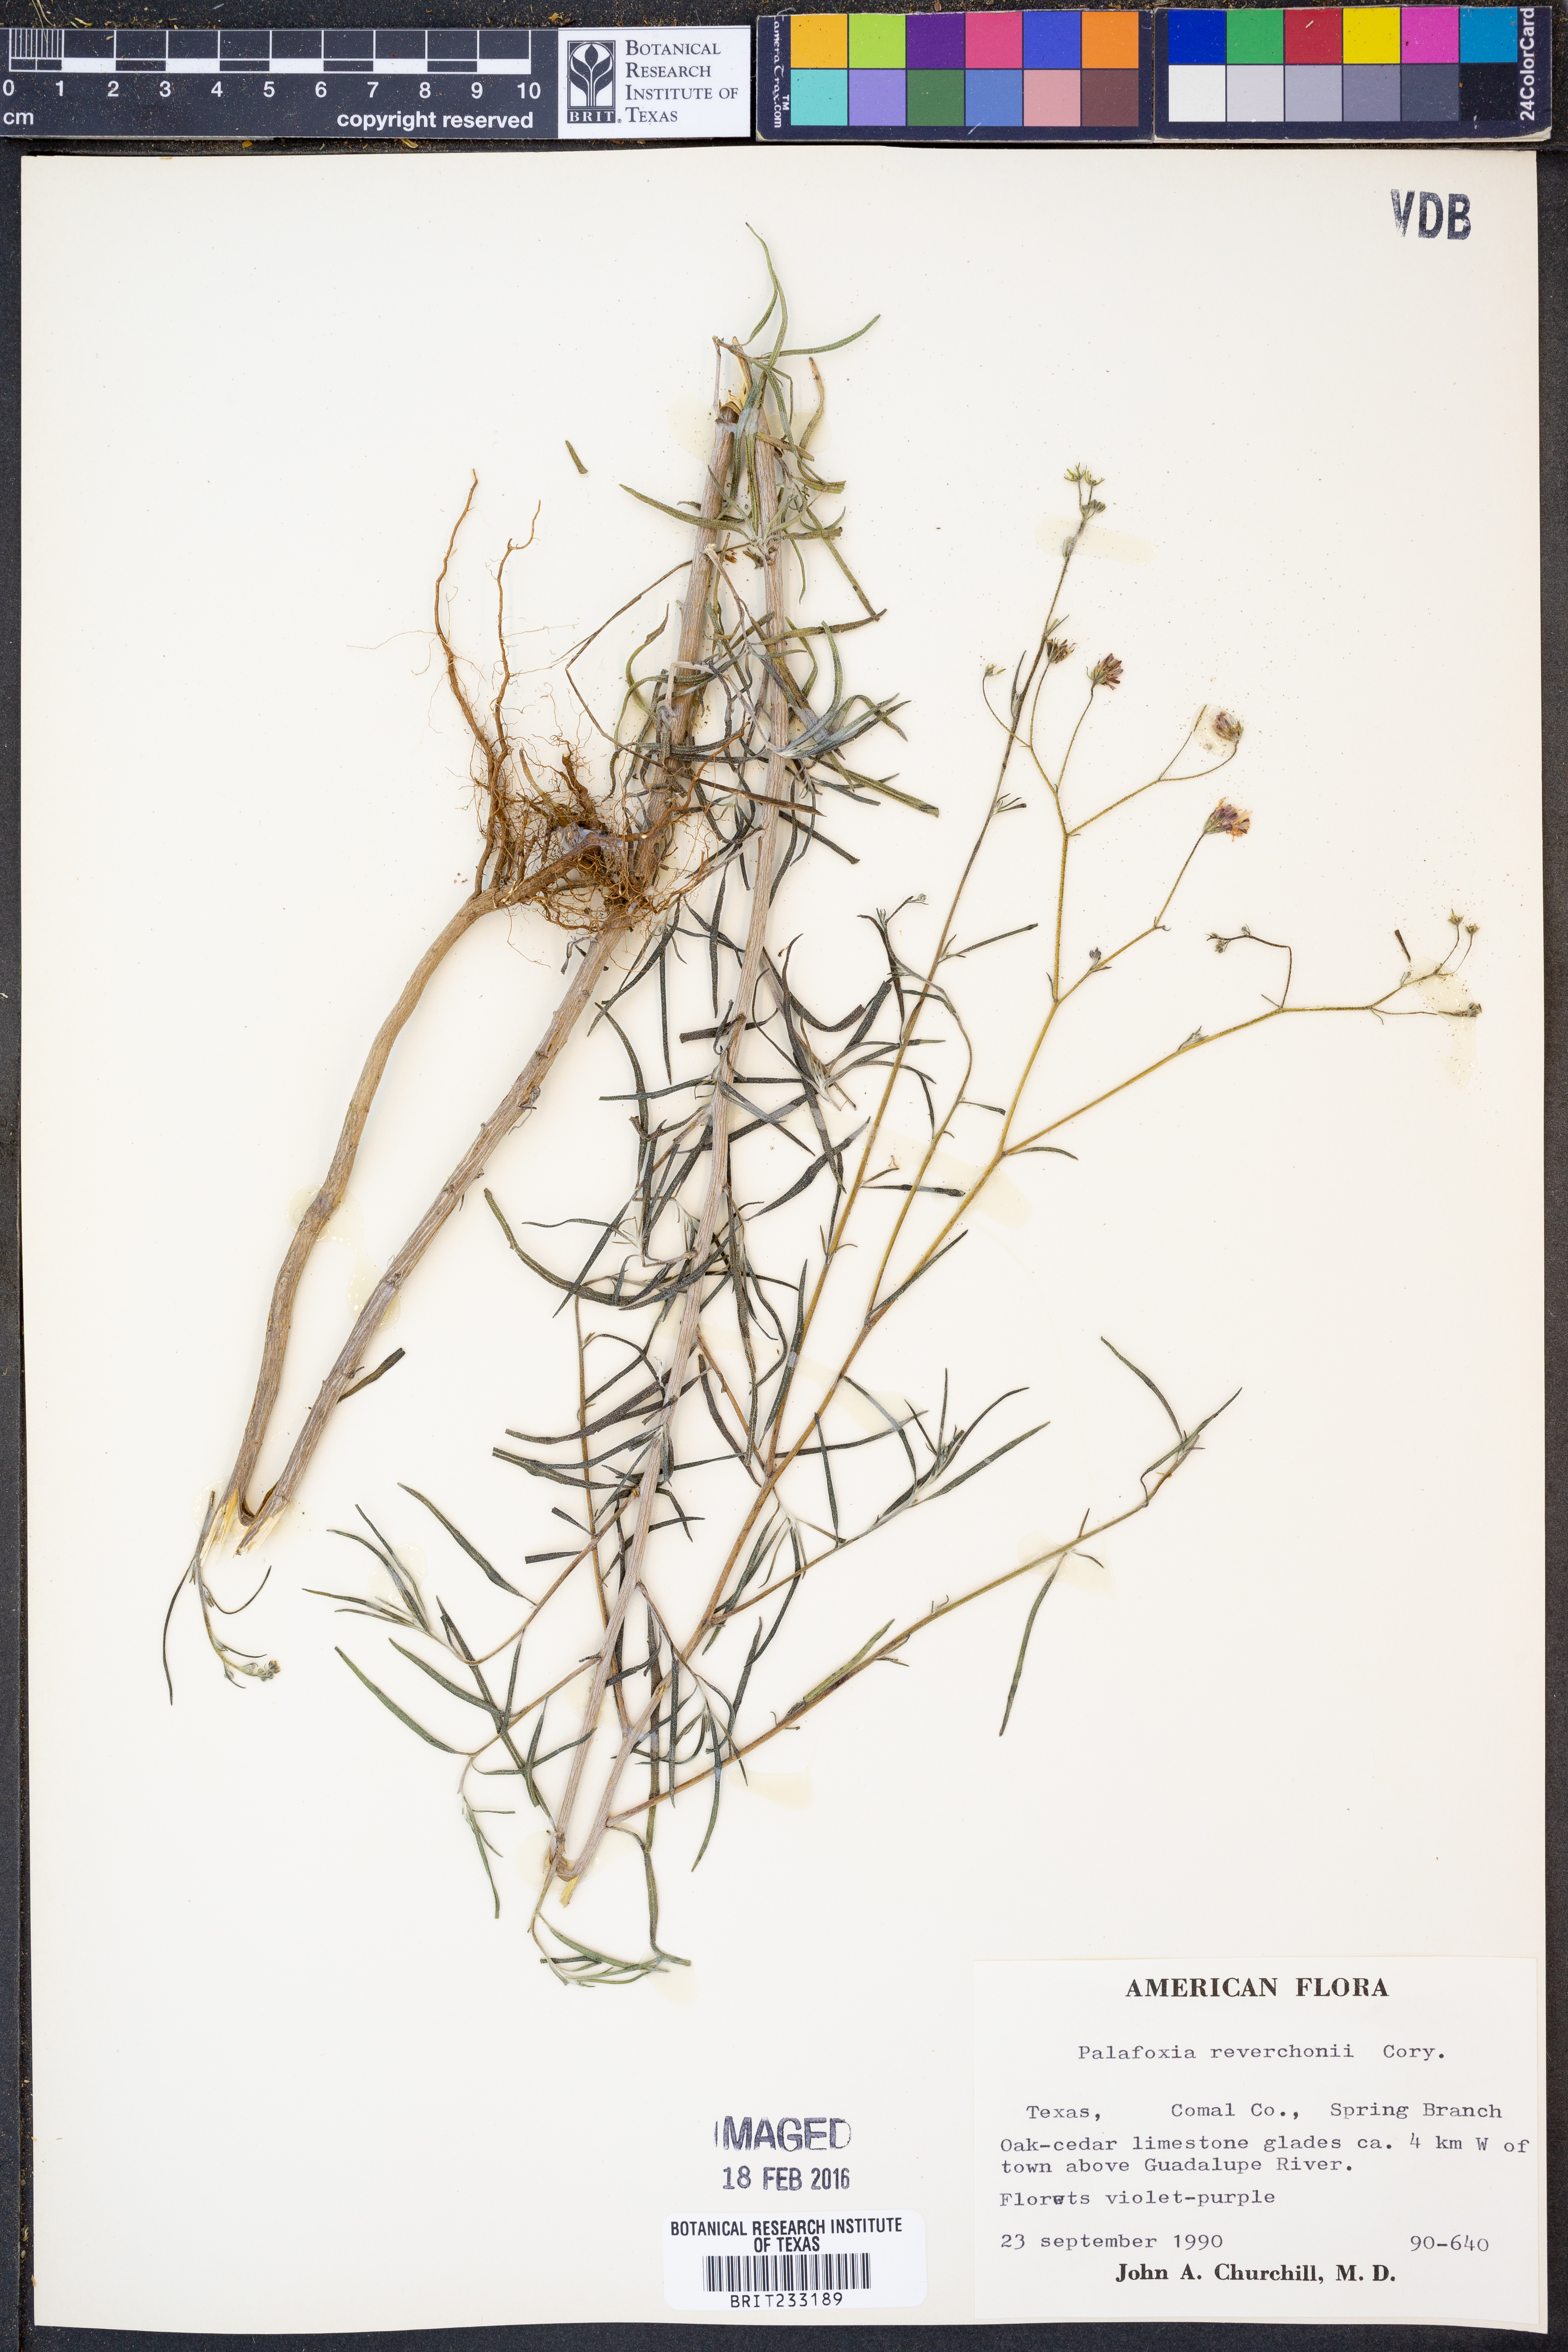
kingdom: Plantae
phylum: Tracheophyta
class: Magnoliopsida
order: Asterales
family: Asteraceae
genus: Palafoxia
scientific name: Palafoxia reverchonii
